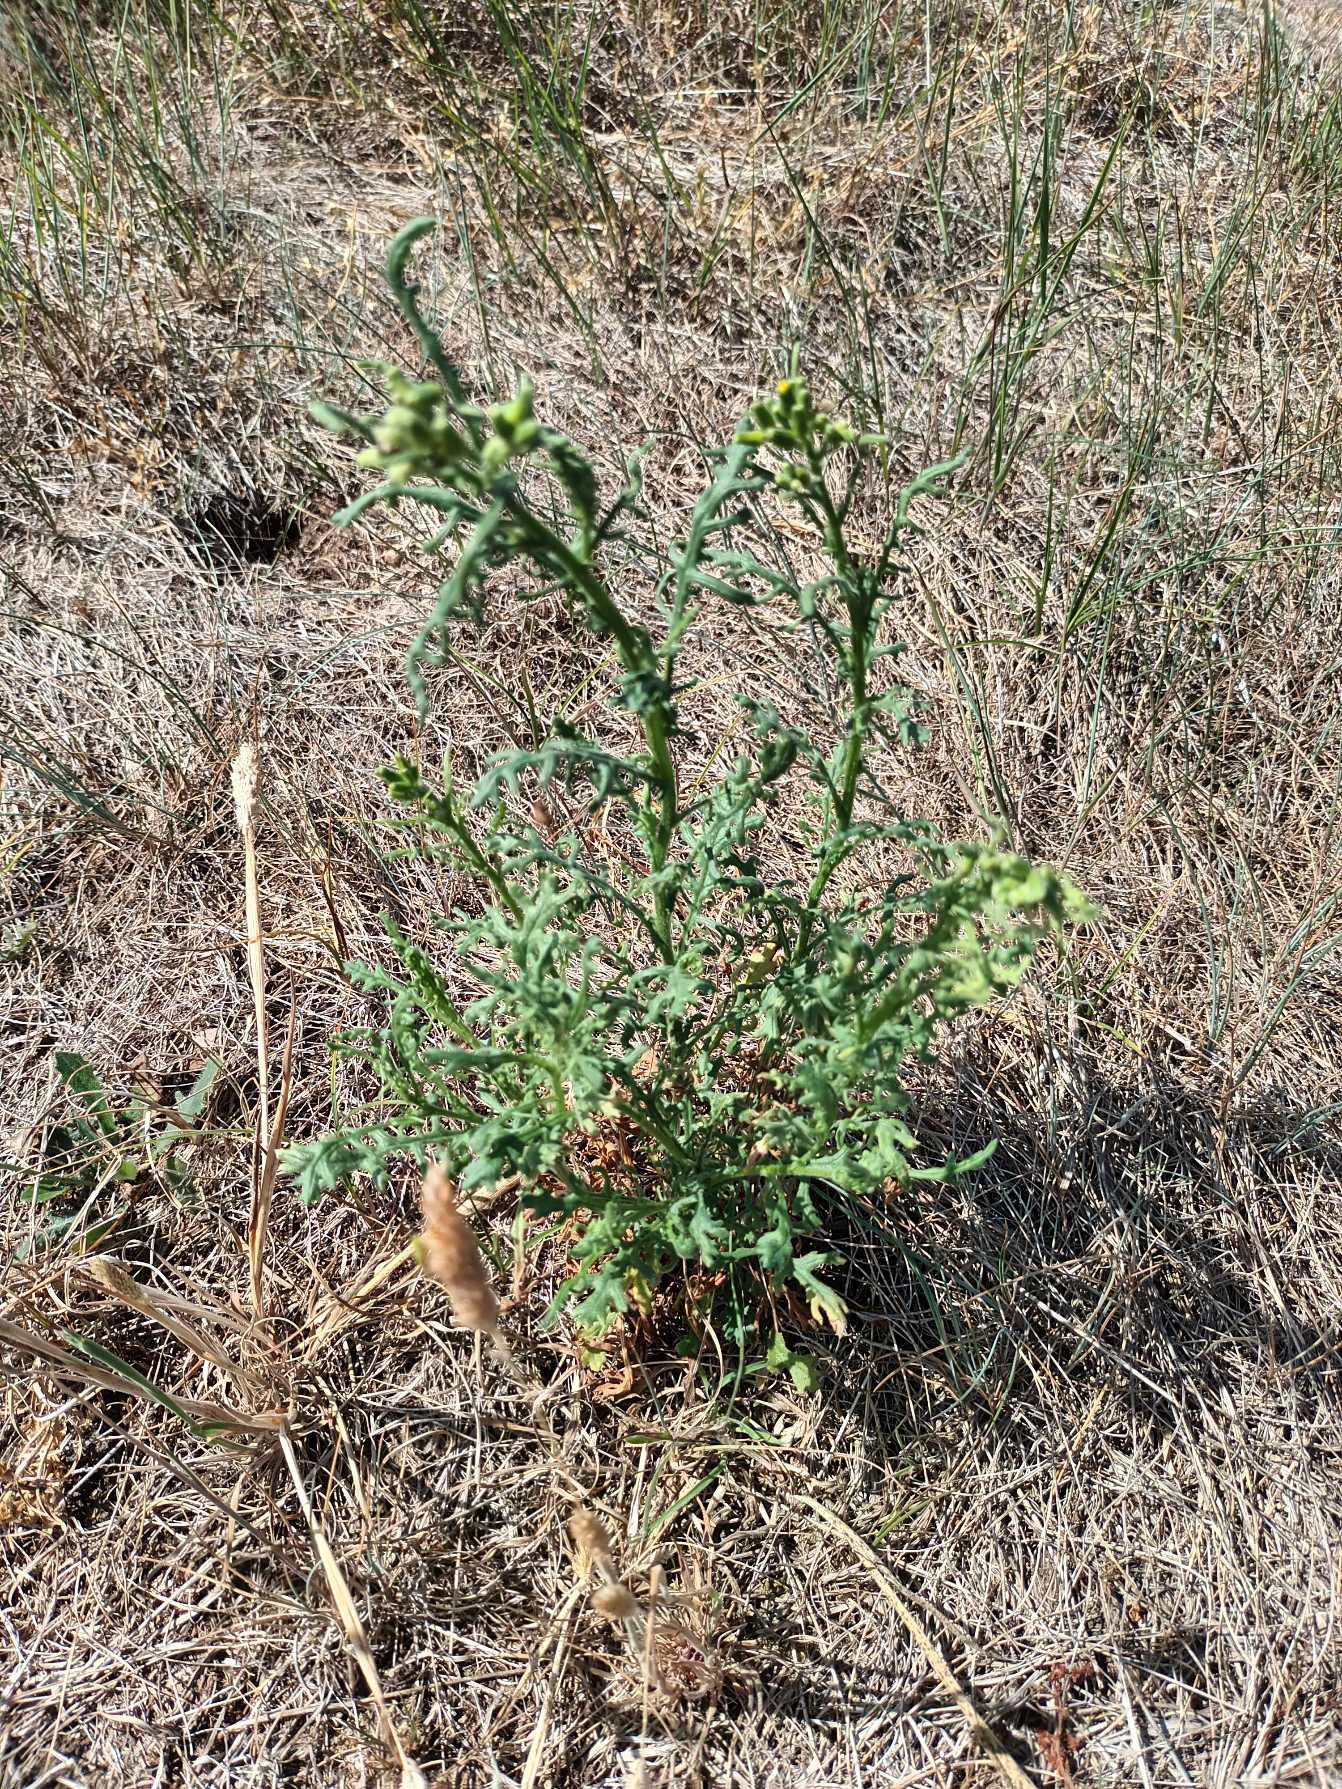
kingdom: Plantae
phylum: Tracheophyta
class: Magnoliopsida
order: Asterales
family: Asteraceae
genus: Senecio
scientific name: Senecio sylvaticus
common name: Skov-brandbæger
